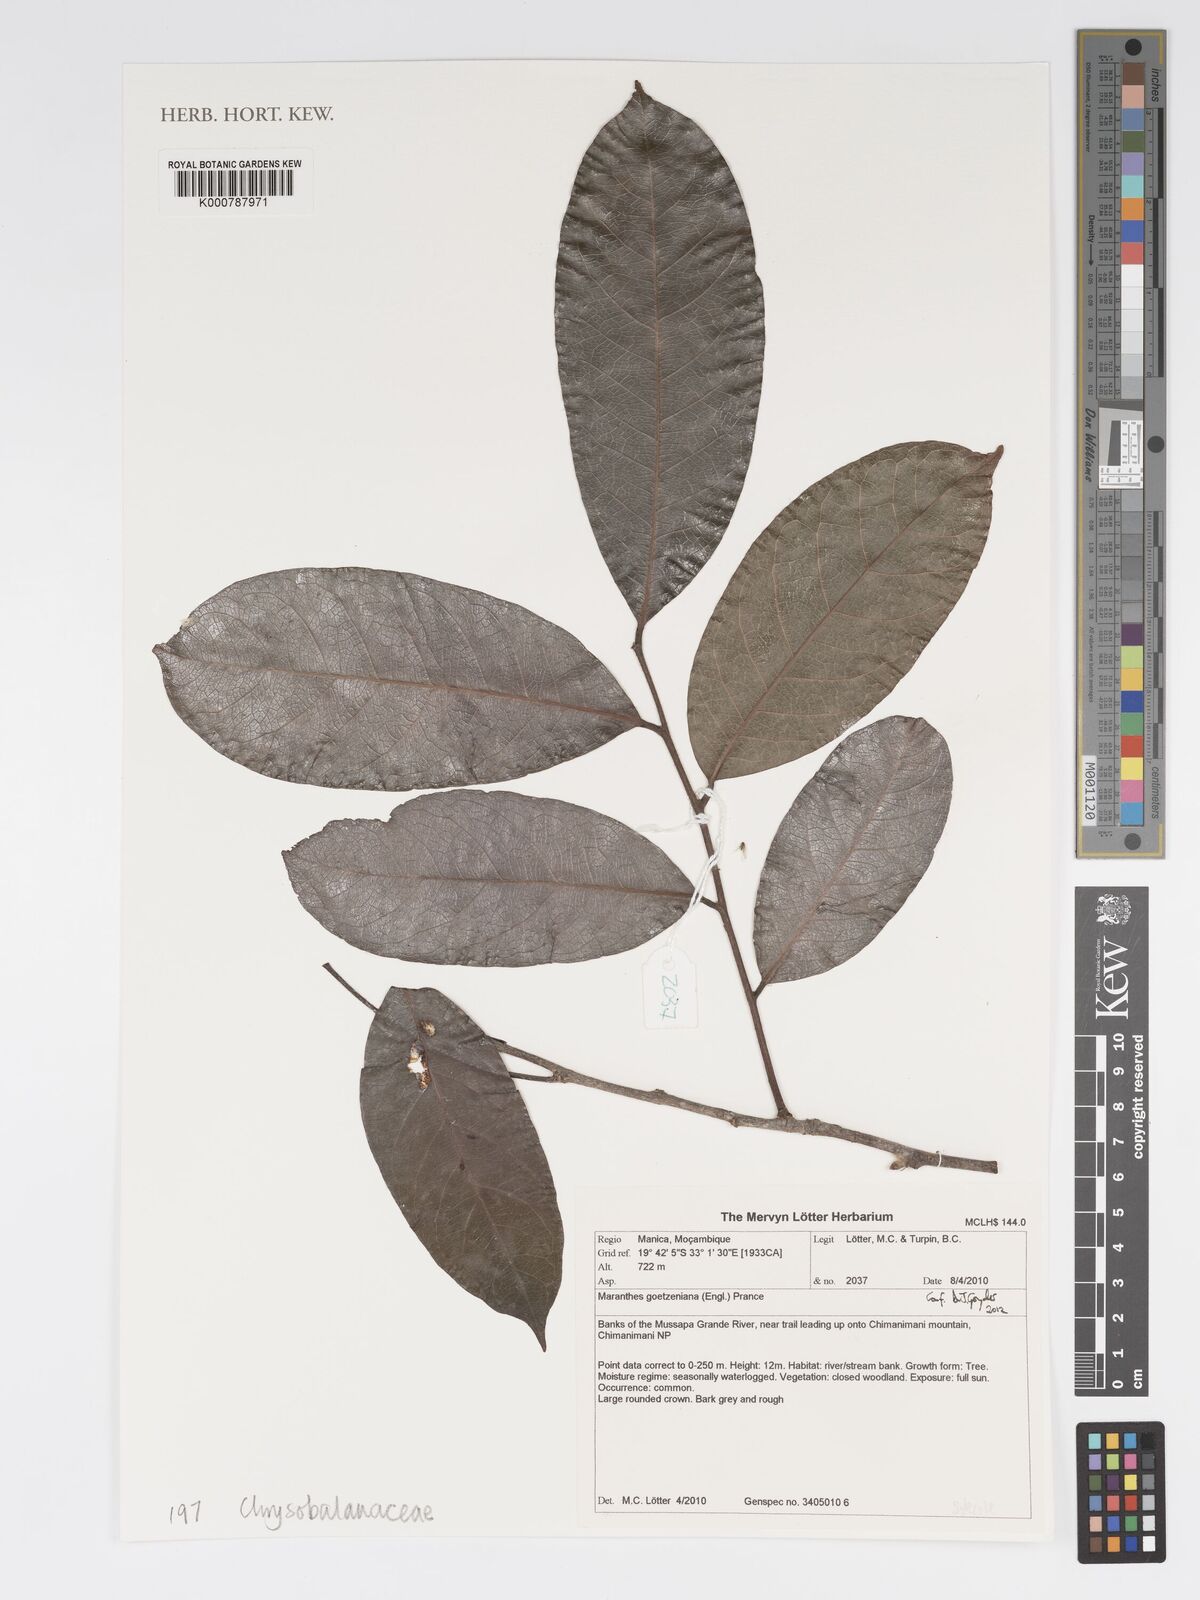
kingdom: Plantae
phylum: Tracheophyta
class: Magnoliopsida
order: Malpighiales
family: Chrysobalanaceae
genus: Maranthes
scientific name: Maranthes goetzeniana
